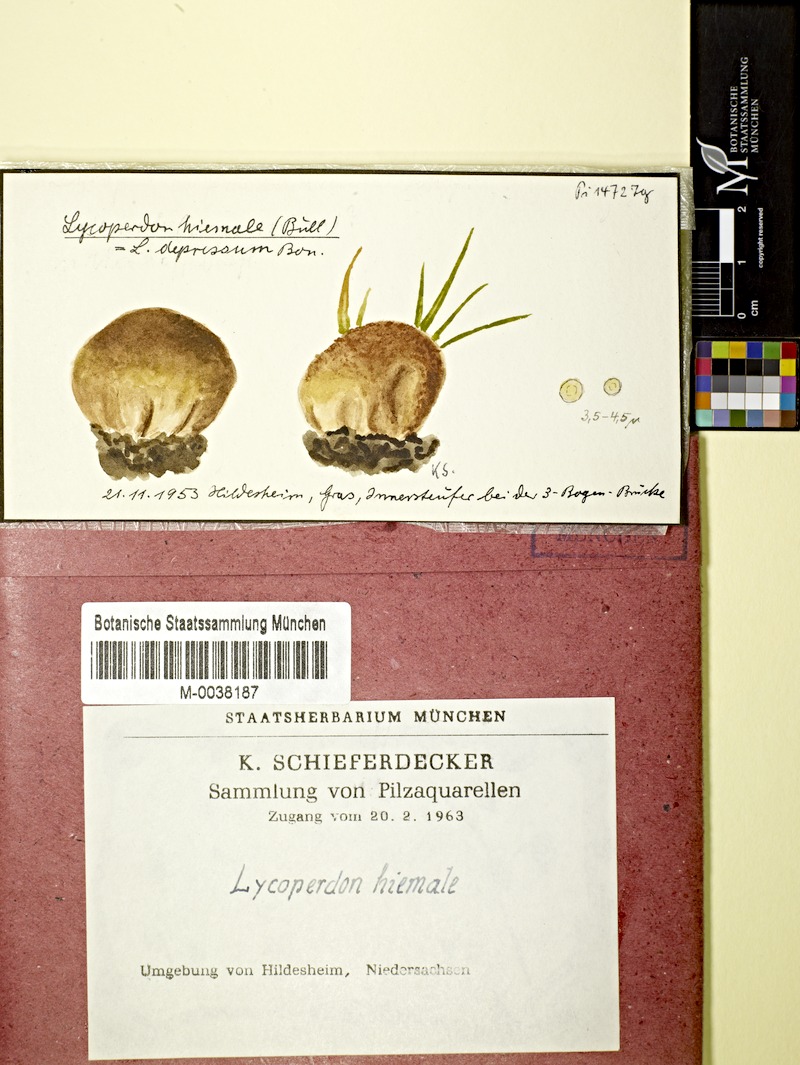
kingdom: Fungi
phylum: Basidiomycota
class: Agaricomycetes
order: Agaricales
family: Lycoperdaceae
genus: Lycoperdon
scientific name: Lycoperdon pratense
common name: Meadow puffball
